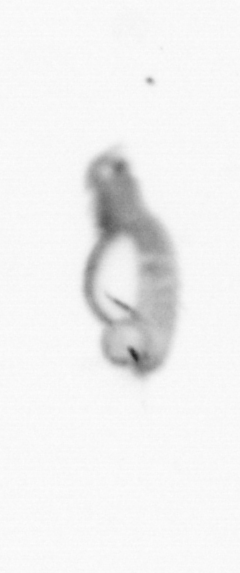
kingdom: Animalia
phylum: Annelida
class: Polychaeta
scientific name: Polychaeta
